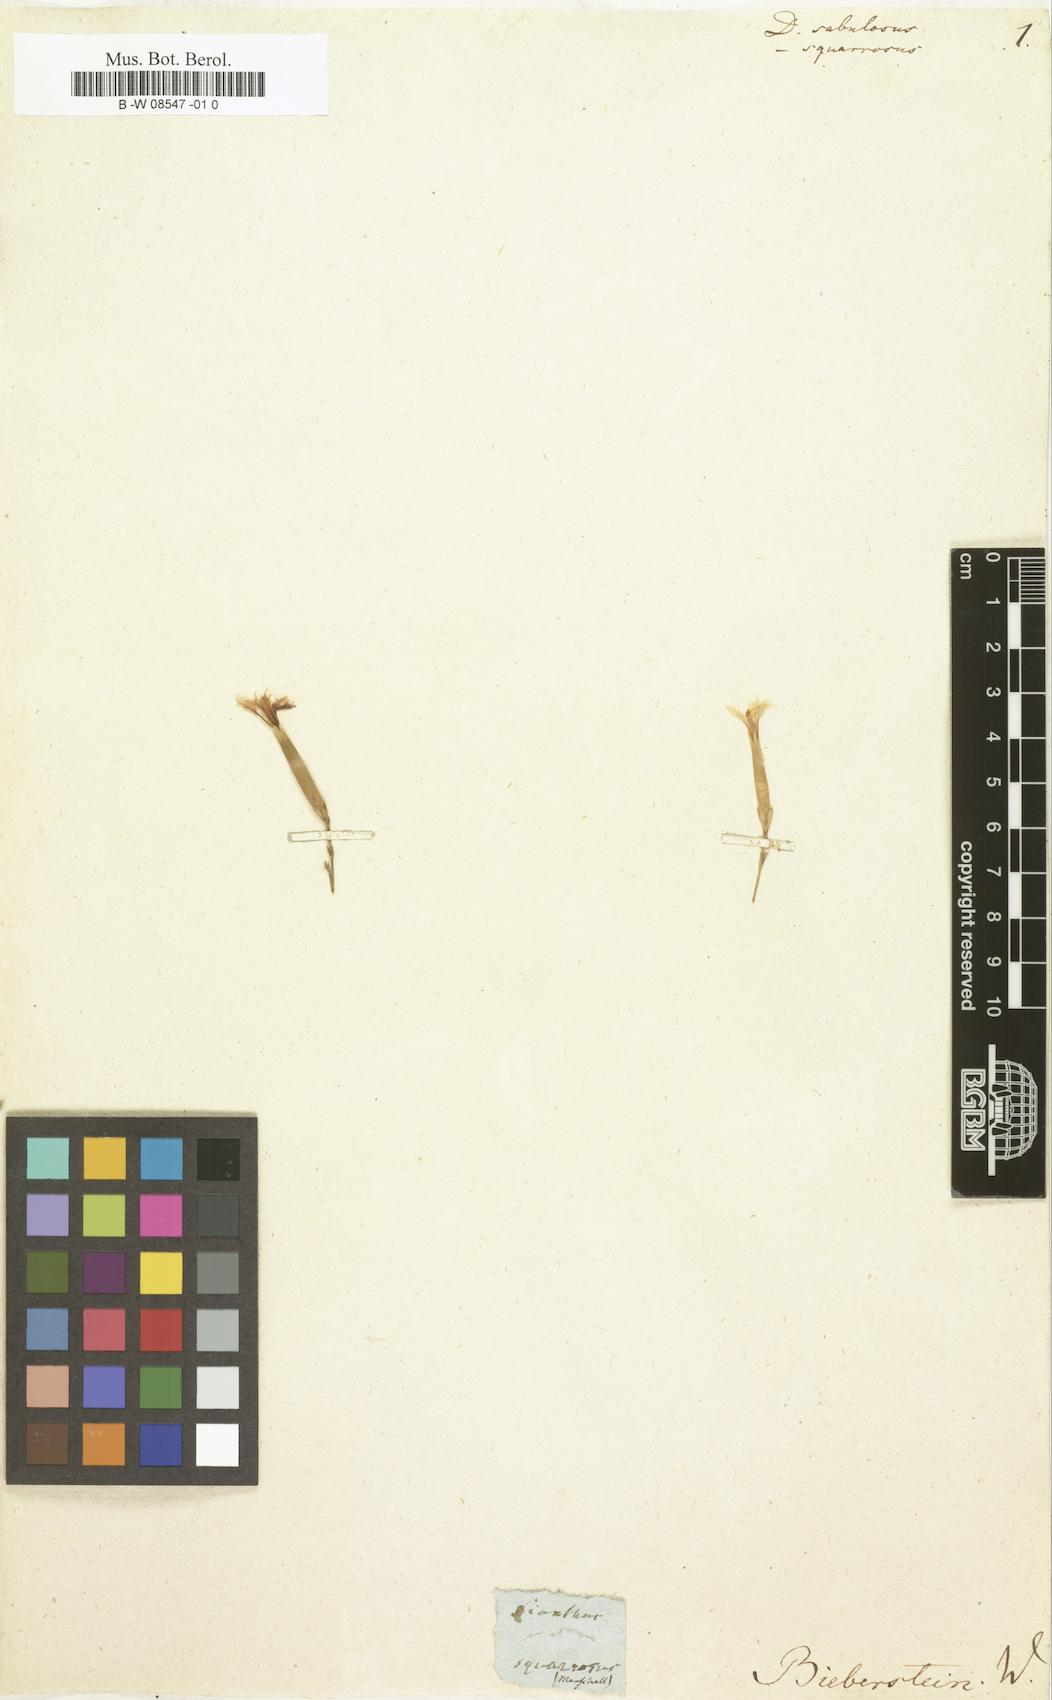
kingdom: Plantae
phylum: Tracheophyta
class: Magnoliopsida
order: Caryophyllales
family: Caryophyllaceae
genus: Dianthus
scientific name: Dianthus squarrosus
